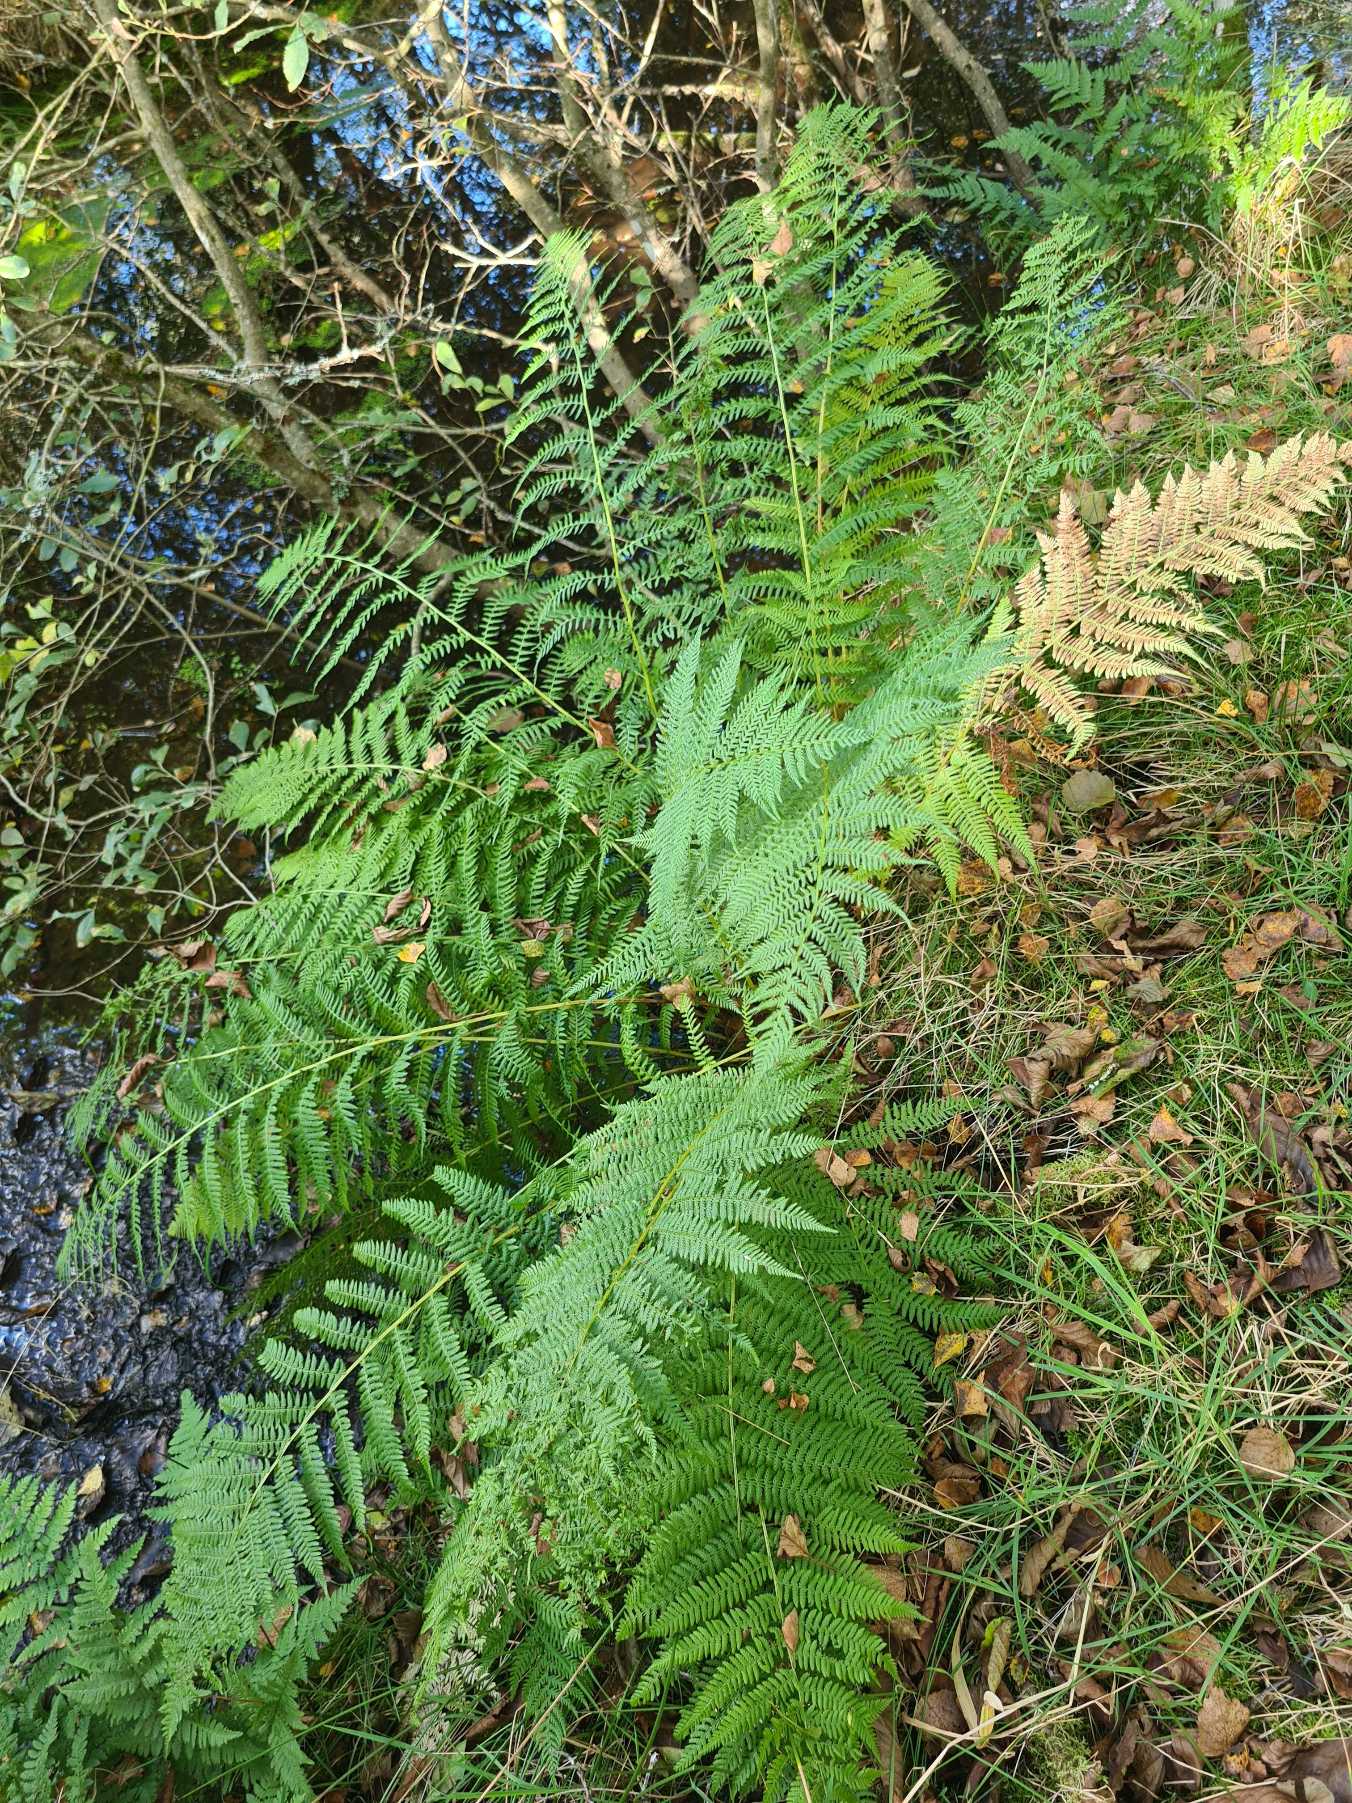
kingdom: Plantae
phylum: Tracheophyta
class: Polypodiopsida
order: Polypodiales
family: Athyriaceae
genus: Athyrium
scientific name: Athyrium filix-femina
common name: Fjerbregne
